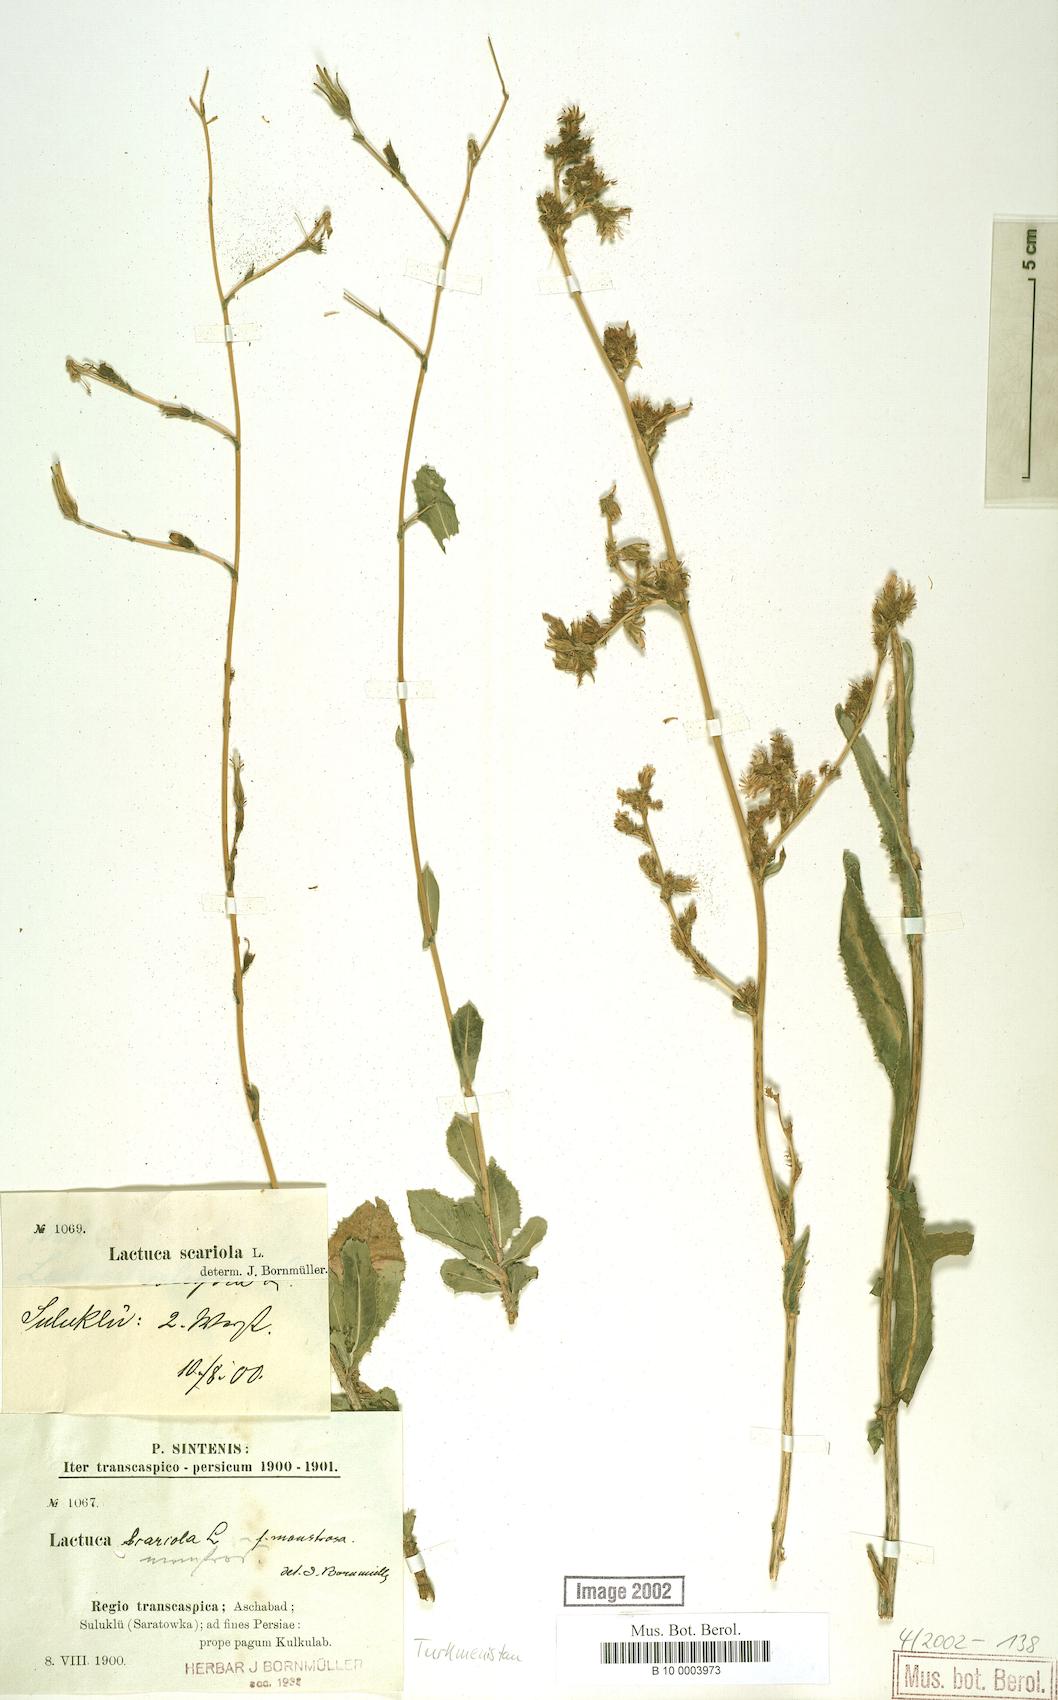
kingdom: Plantae
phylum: Tracheophyta
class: Magnoliopsida
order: Asterales
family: Asteraceae
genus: Lactuca
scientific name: Lactuca serriola
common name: Prickly lettuce
